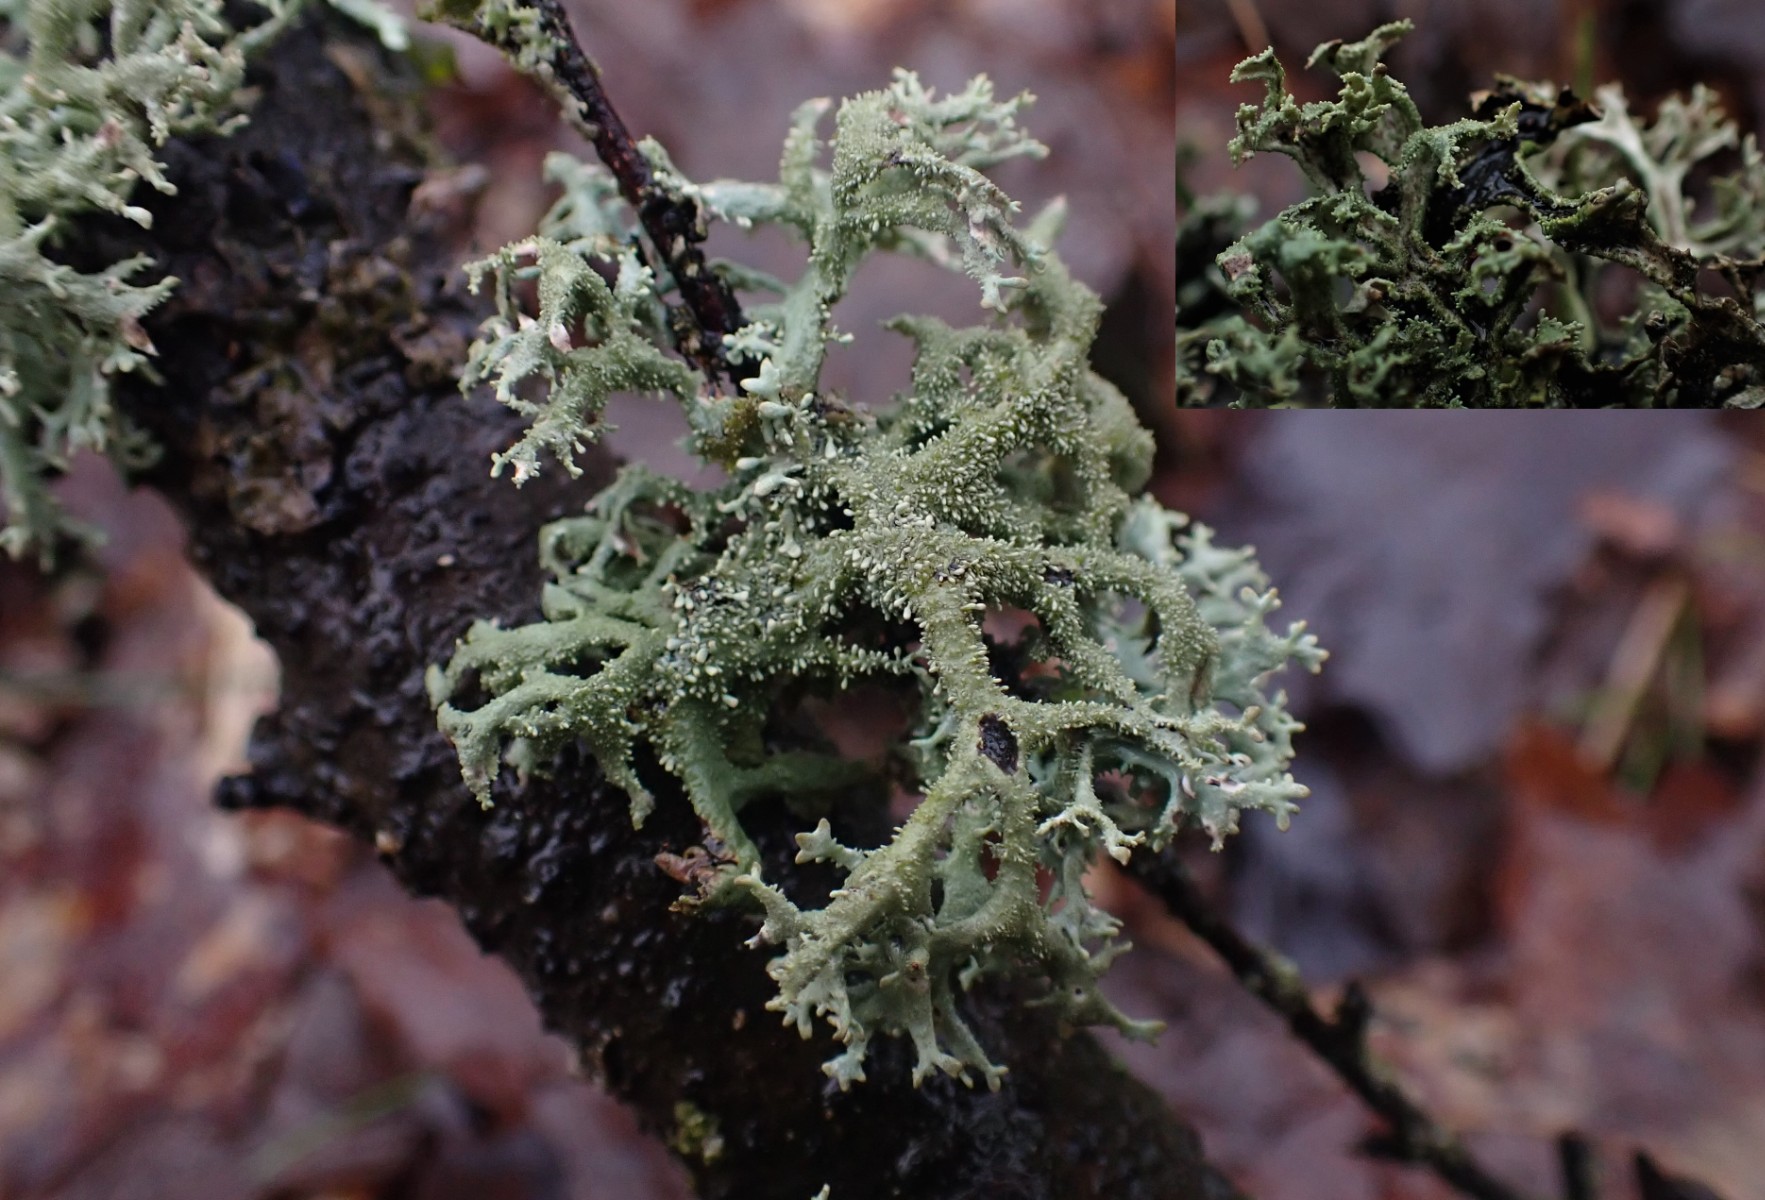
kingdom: Fungi
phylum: Ascomycota
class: Lecanoromycetes
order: Lecanorales
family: Parmeliaceae
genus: Pseudevernia
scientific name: Pseudevernia furfuracea
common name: grå fyrrelav
